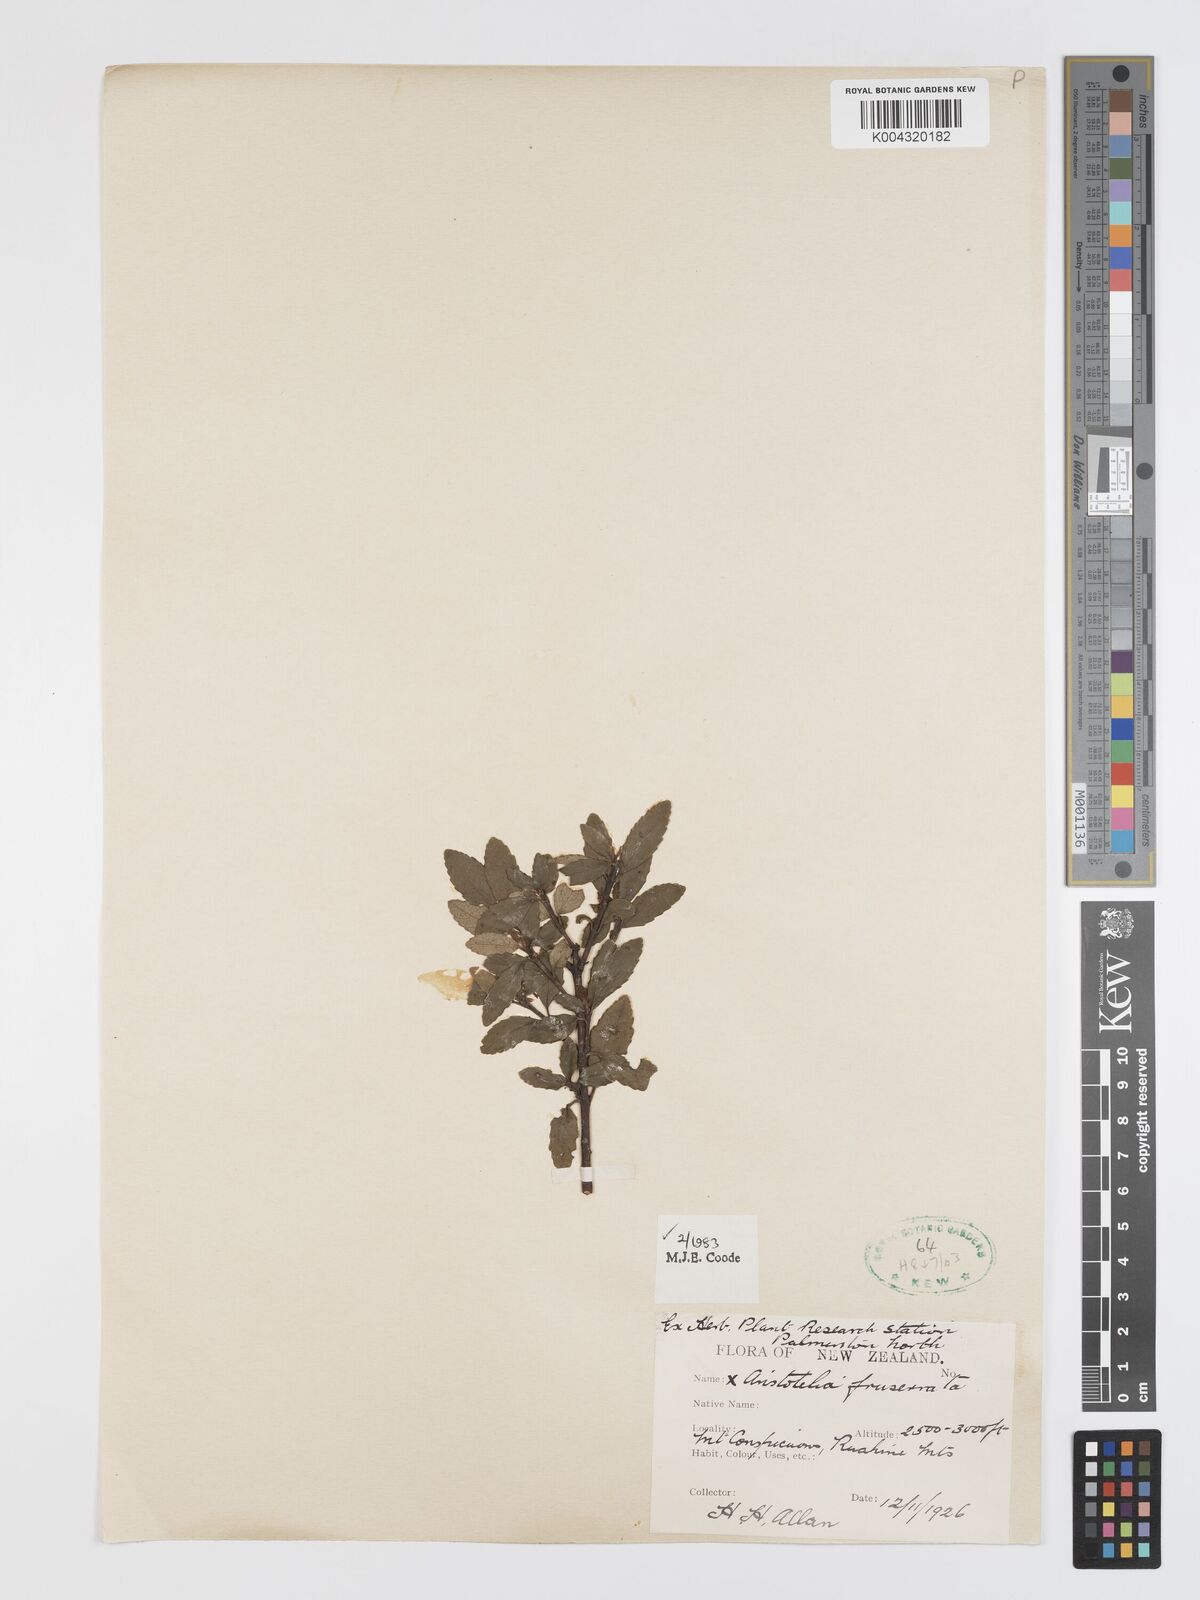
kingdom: Plantae
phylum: Tracheophyta
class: Magnoliopsida
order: Oxalidales
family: Elaeocarpaceae
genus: Aristotelia
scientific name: Aristotelia fruticosa
